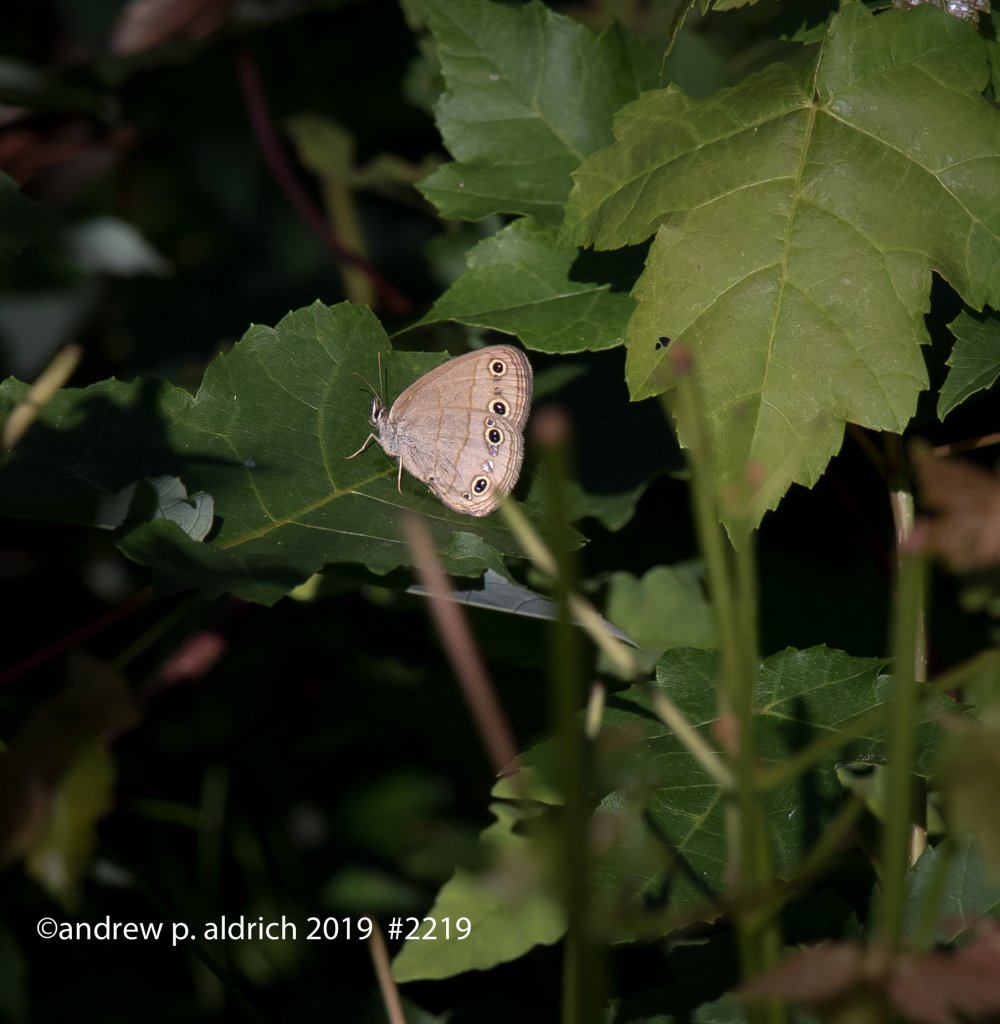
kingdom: Animalia
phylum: Arthropoda
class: Insecta
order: Lepidoptera
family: Nymphalidae
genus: Euptychia
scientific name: Euptychia cymela
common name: Little Wood Satyr
